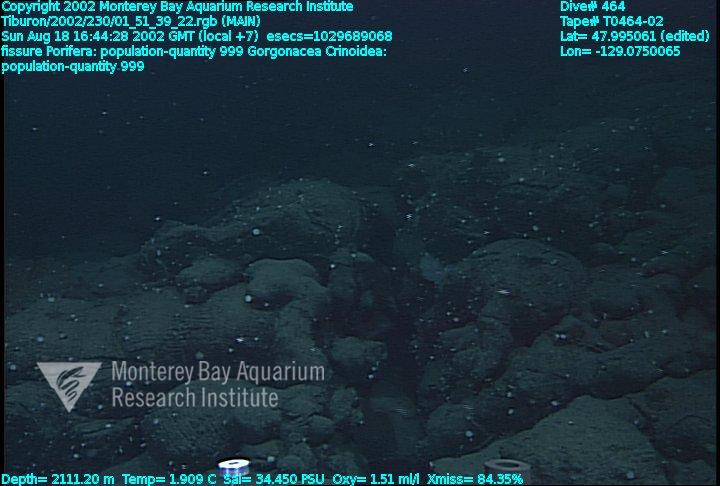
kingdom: Animalia
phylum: Porifera
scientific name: Porifera
